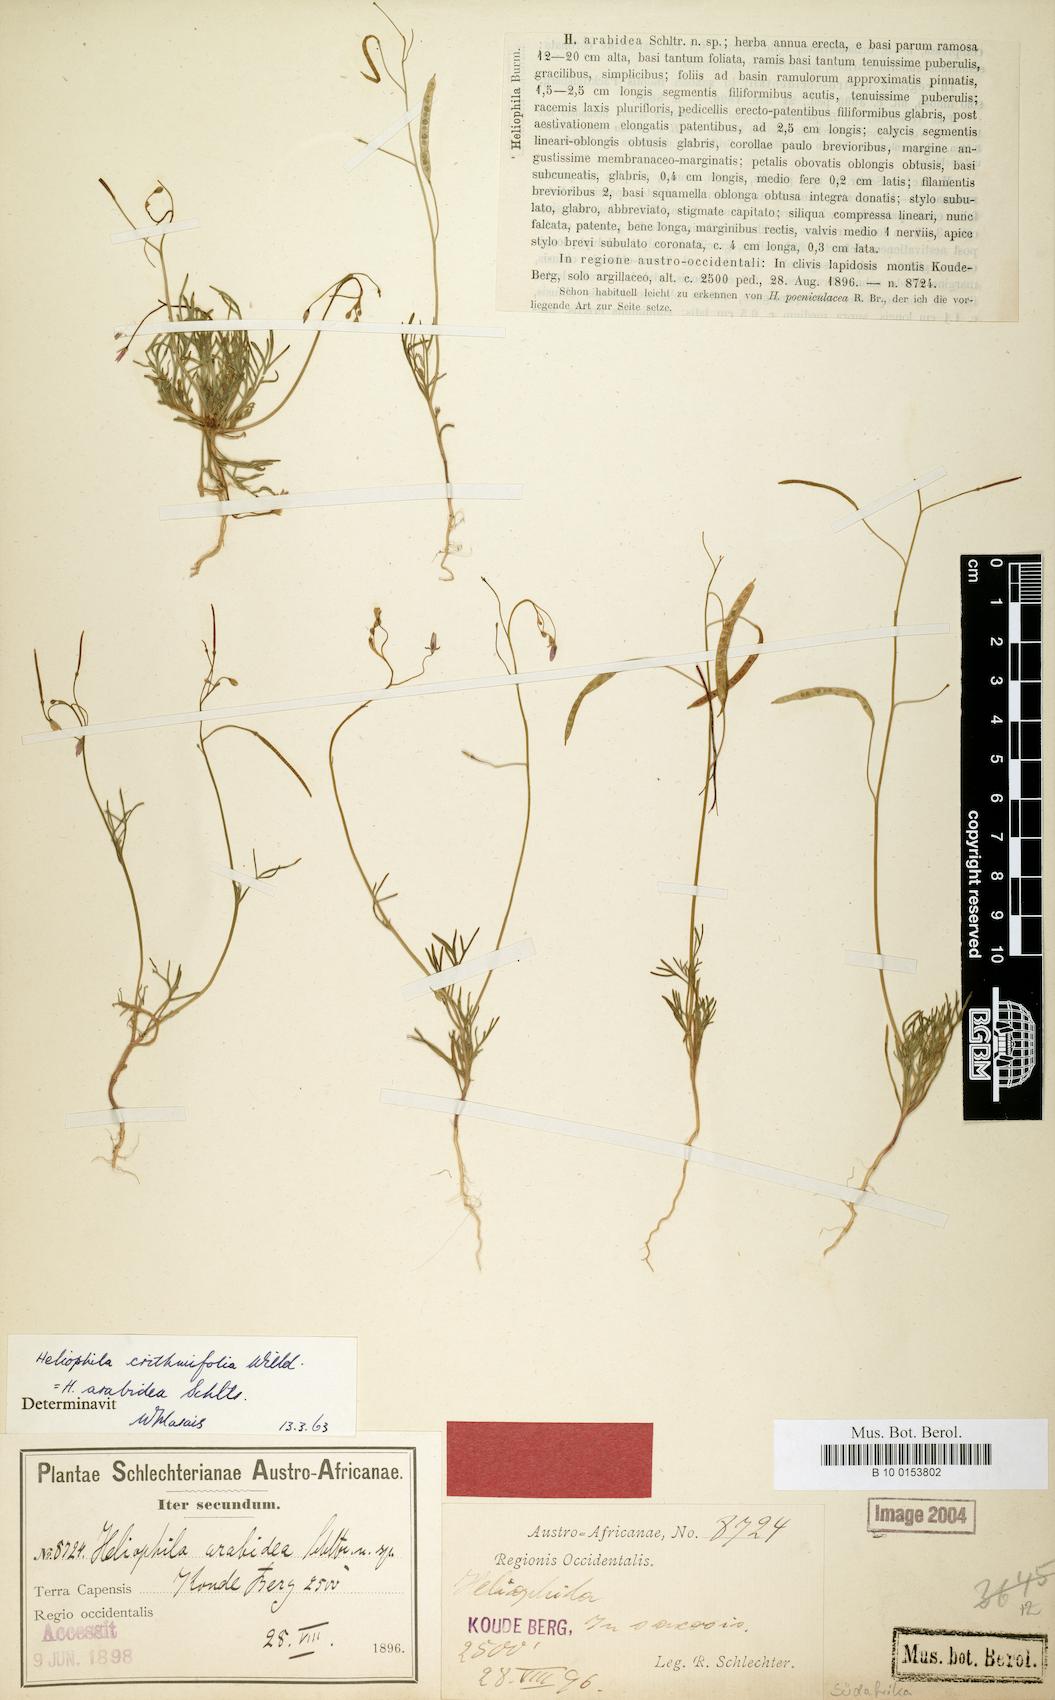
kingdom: Plantae
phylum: Tracheophyta
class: Magnoliopsida
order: Brassicales
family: Brassicaceae
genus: Heliophila
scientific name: Heliophila crithmifolia
